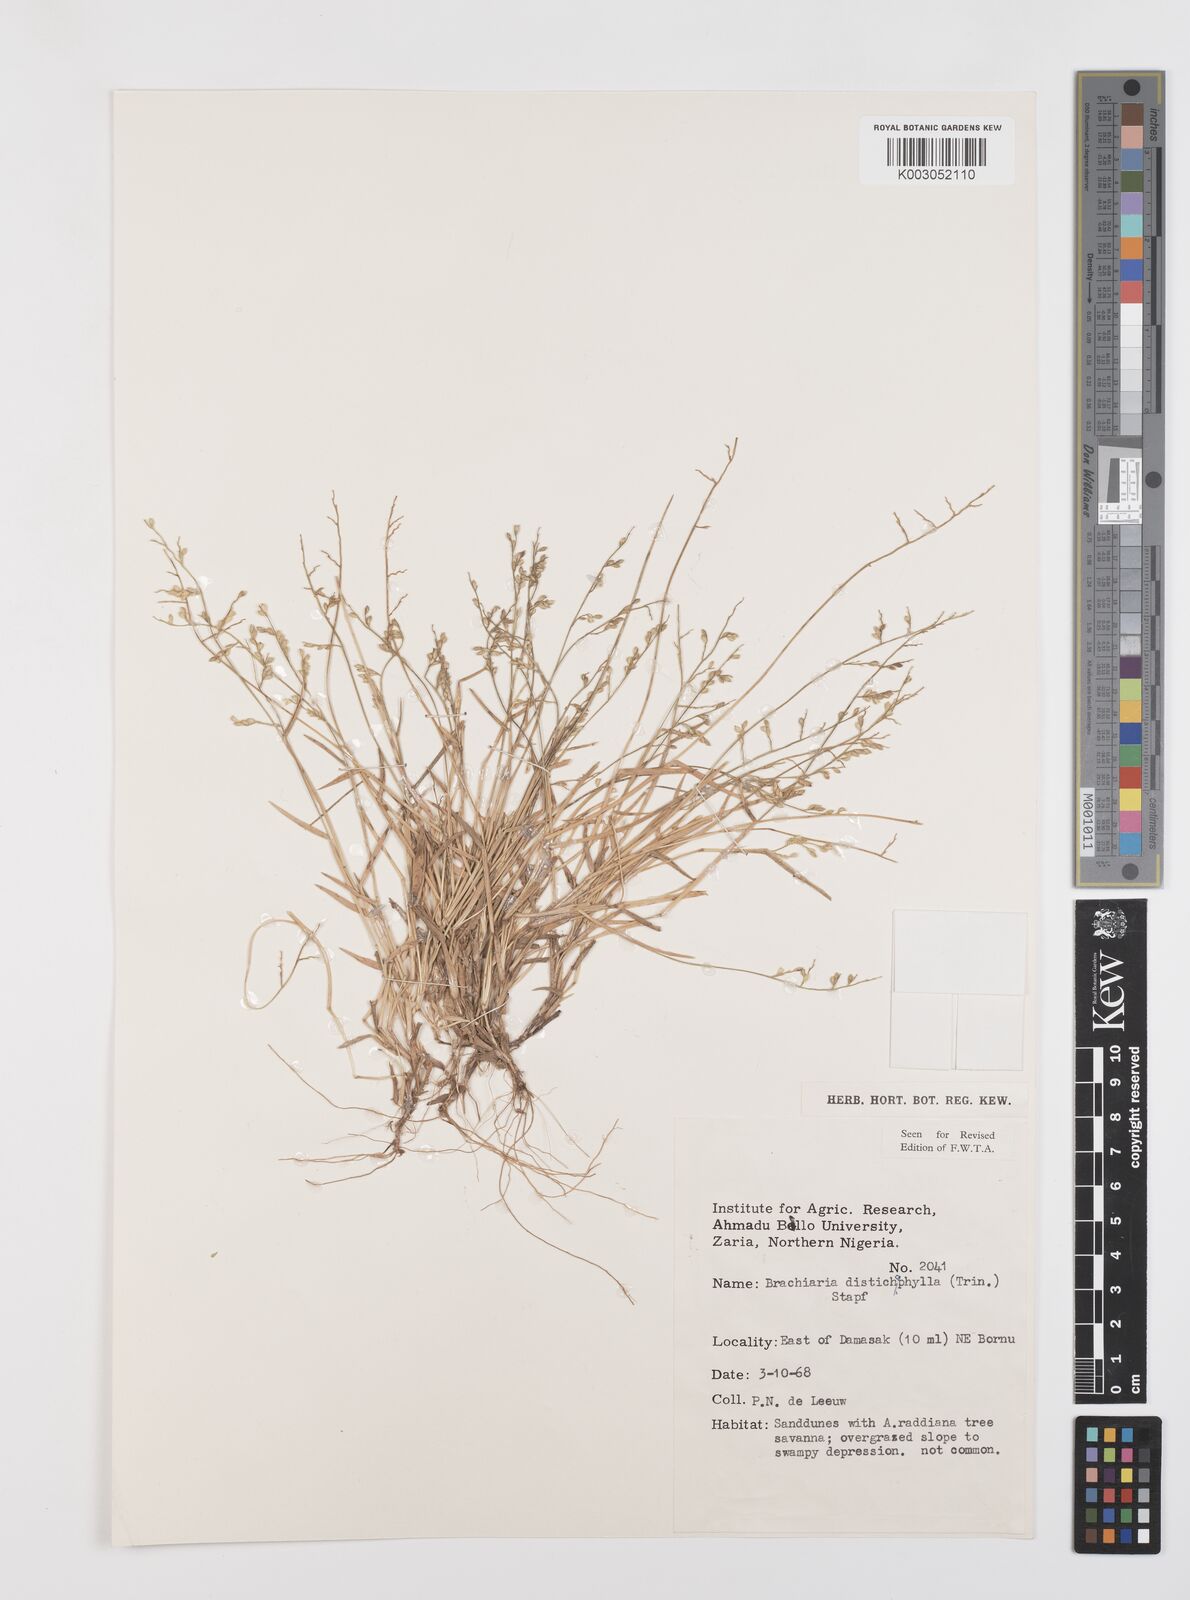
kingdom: Plantae
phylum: Tracheophyta
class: Liliopsida
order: Poales
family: Poaceae
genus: Urochloa
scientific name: Urochloa villosa
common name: Hairy signalgrass
